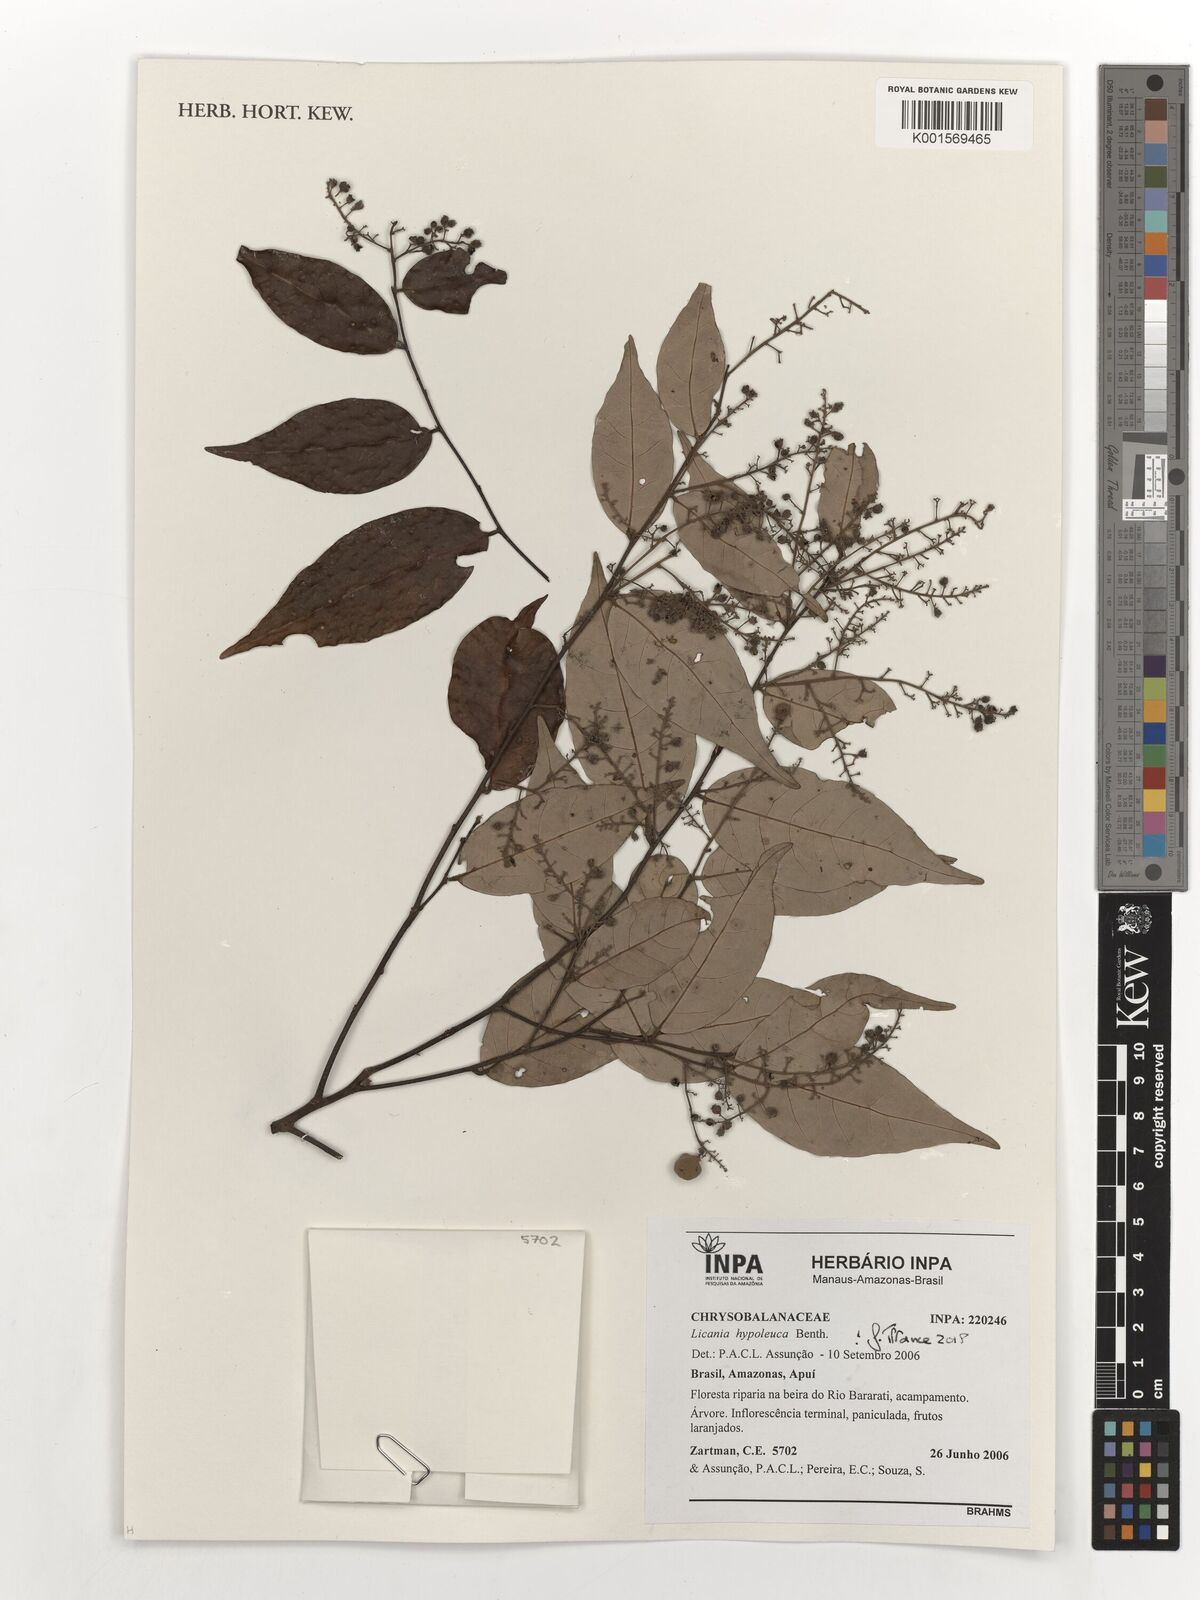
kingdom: Plantae
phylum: Tracheophyta
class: Magnoliopsida
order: Malpighiales
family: Chrysobalanaceae
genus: Licania
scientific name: Licania hypoleuca
